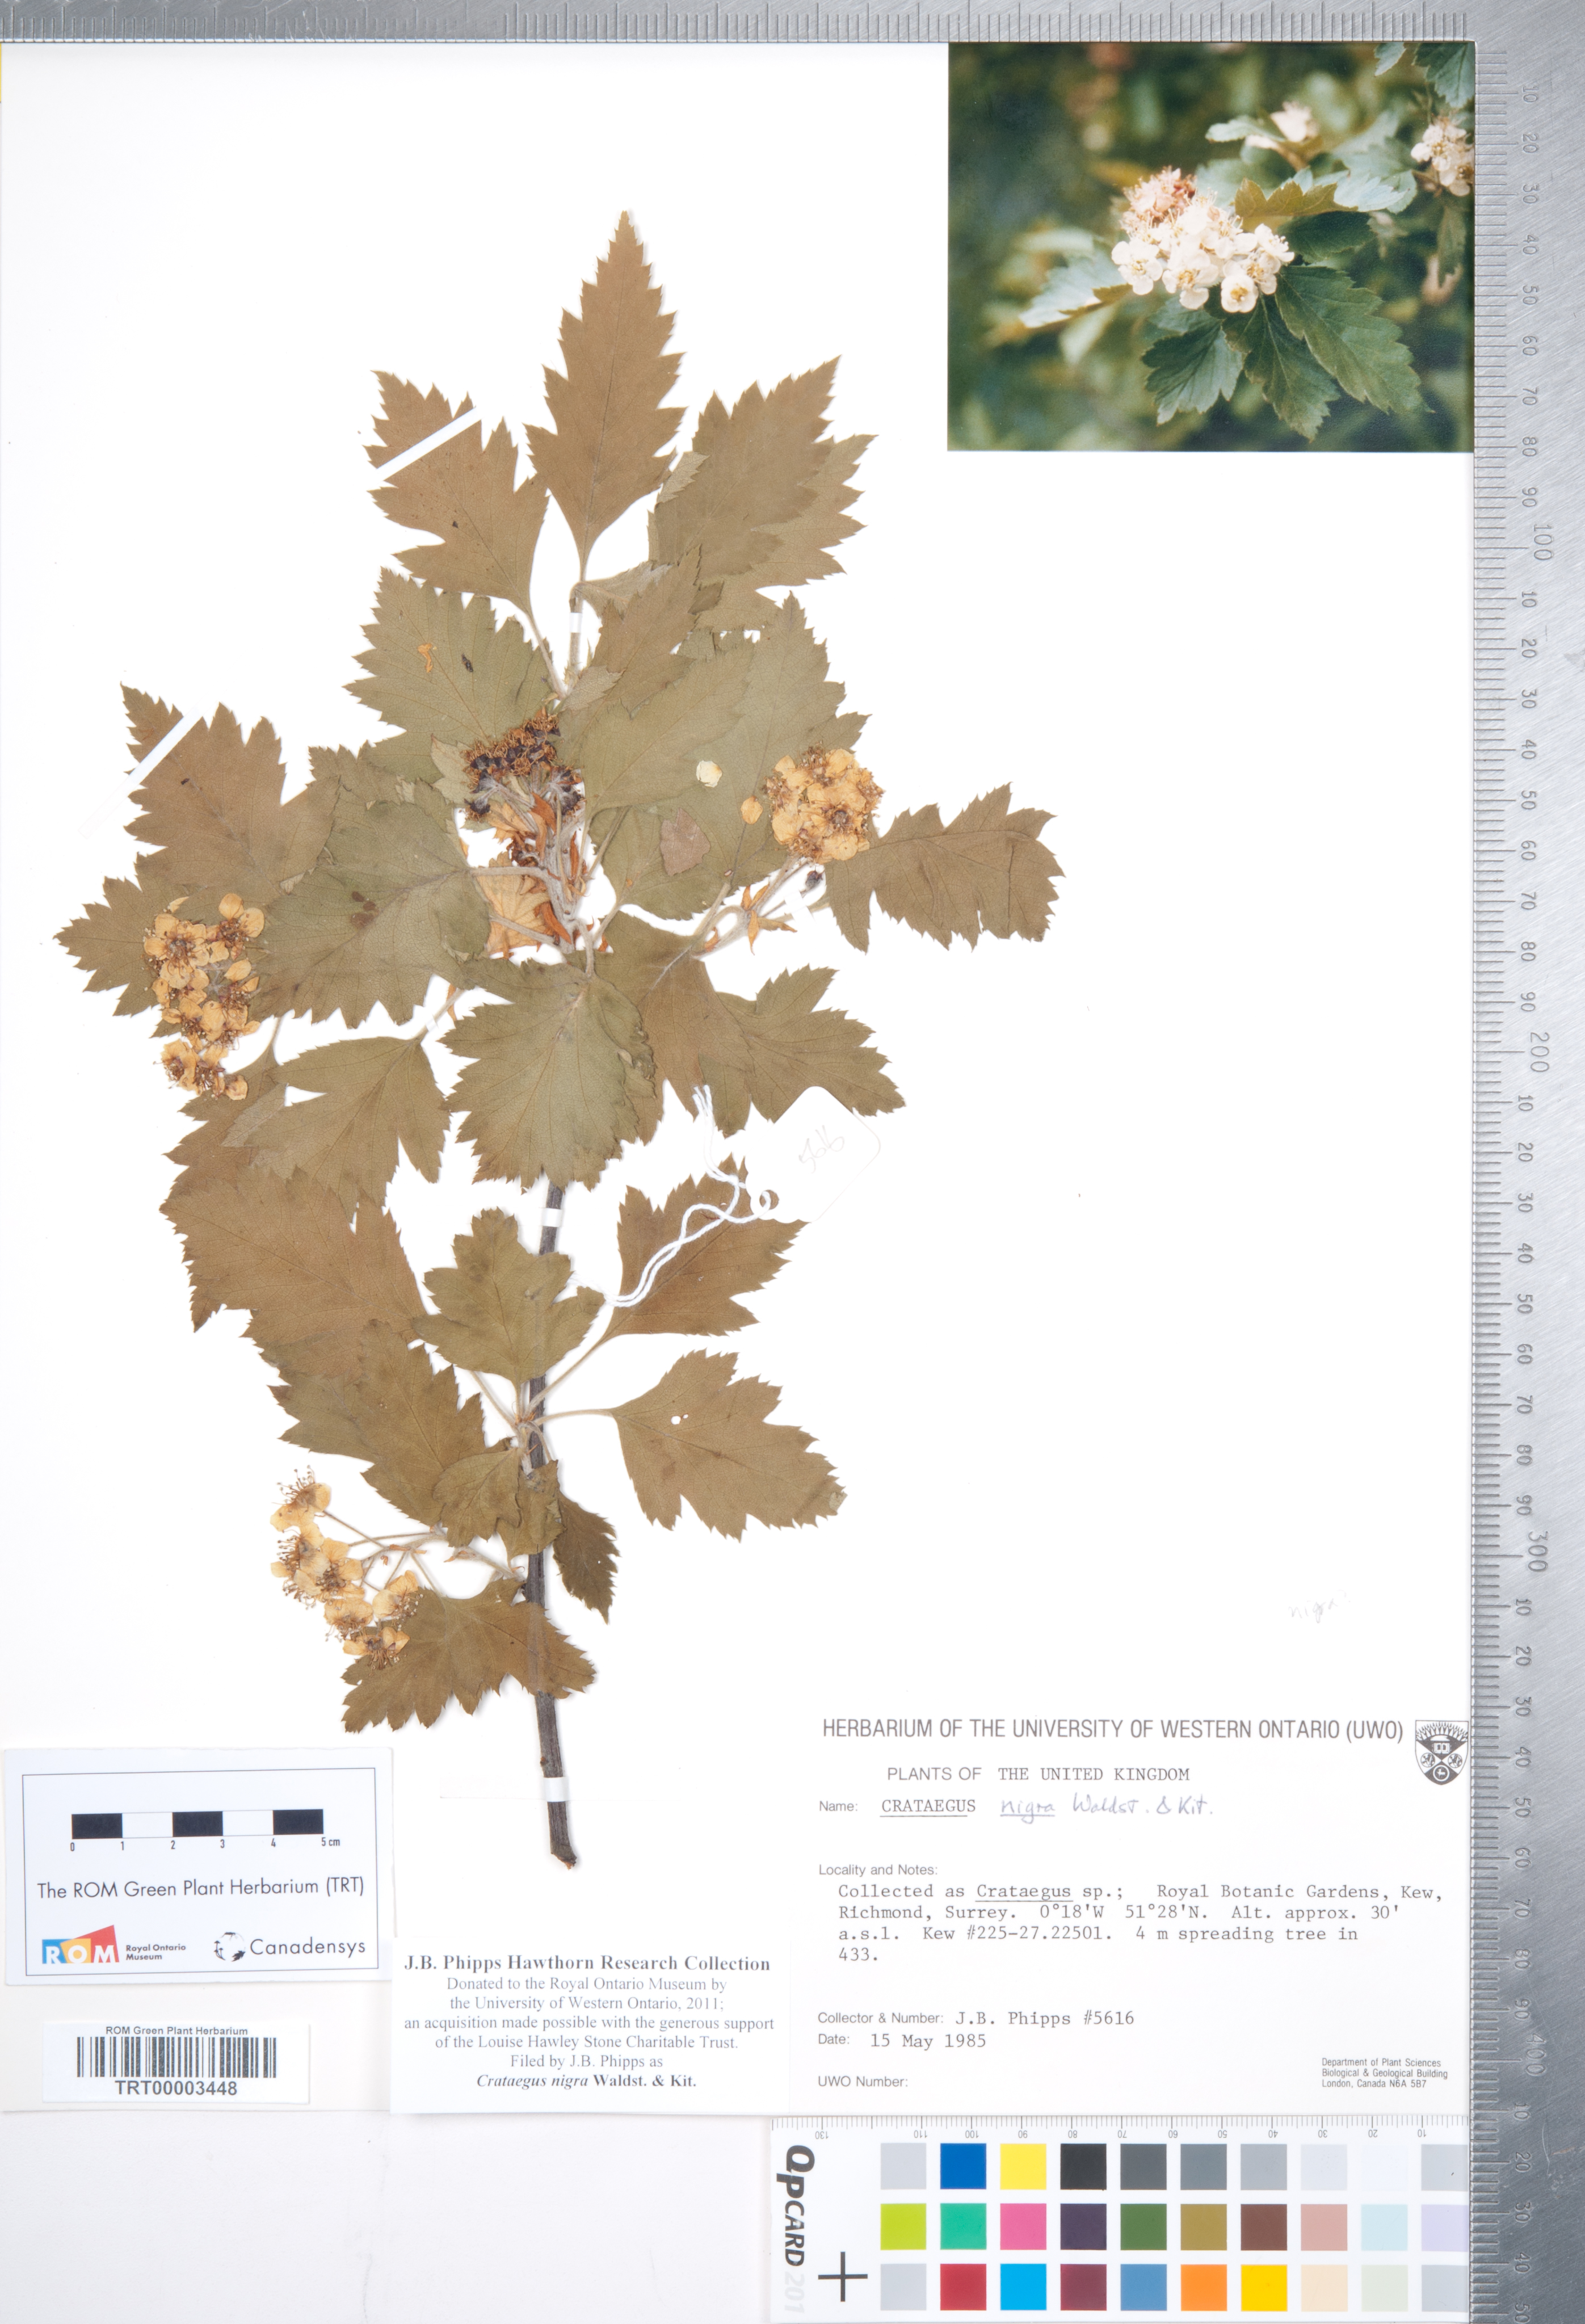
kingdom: Plantae
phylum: Tracheophyta
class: Magnoliopsida
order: Rosales
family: Rosaceae
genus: Crataegus
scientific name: Crataegus nigra
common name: Hungarian thorn
